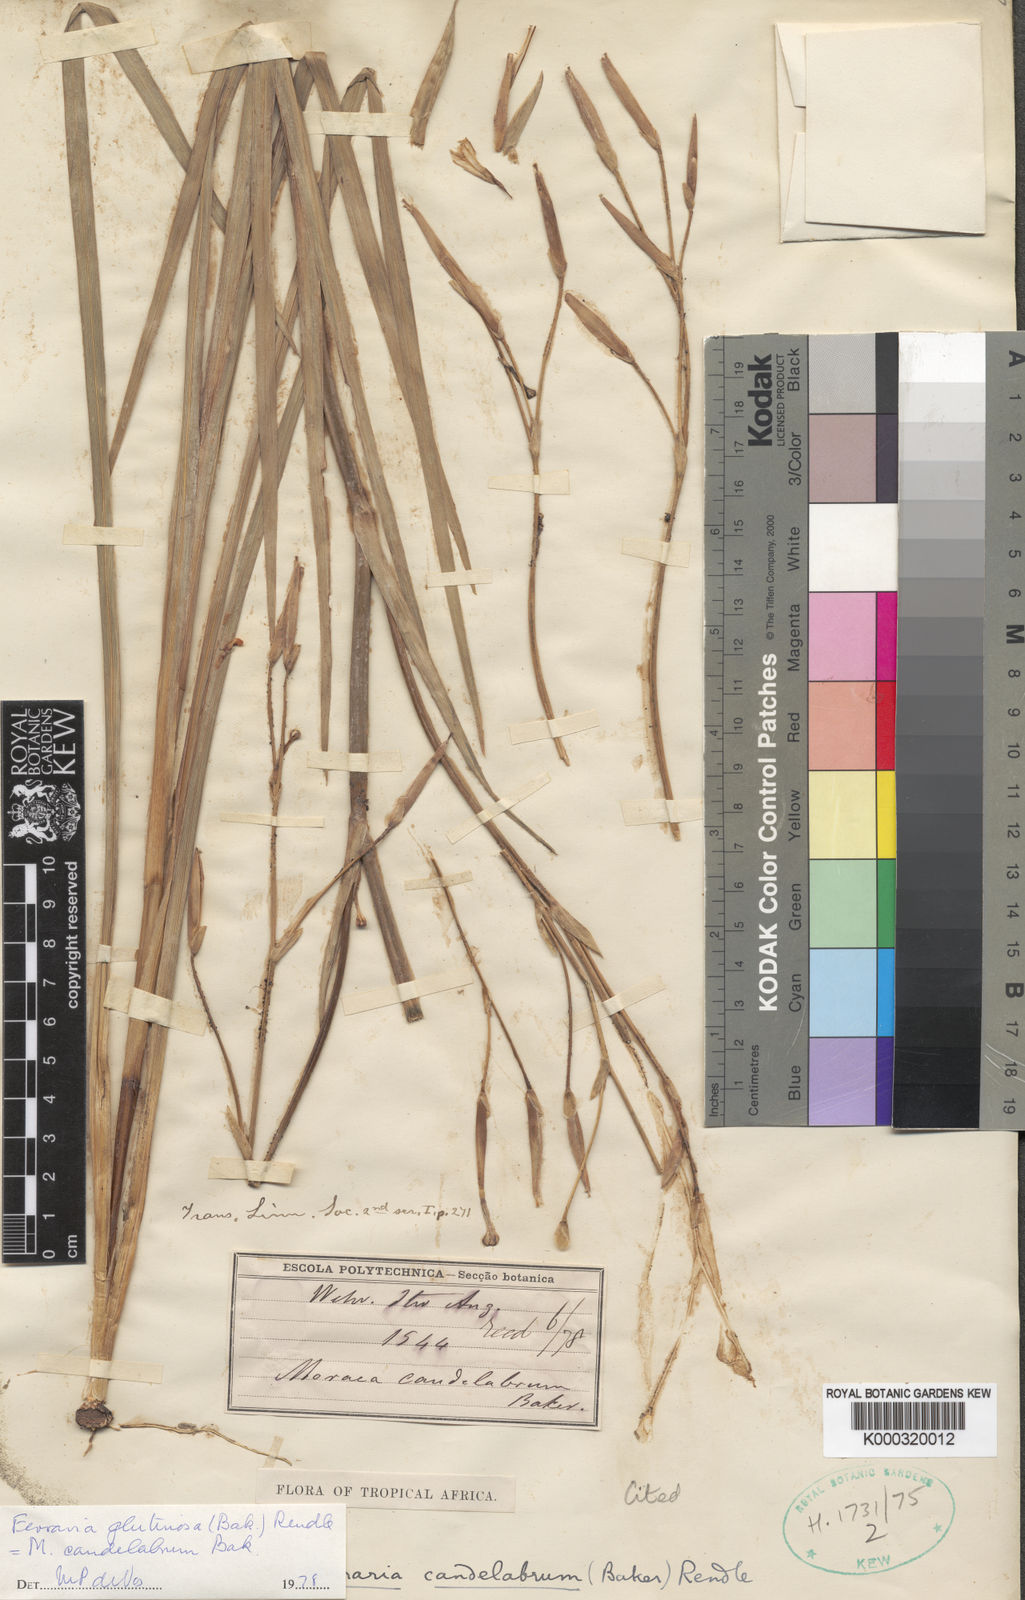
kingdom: Plantae
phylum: Tracheophyta
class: Liliopsida
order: Asparagales
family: Iridaceae
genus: Ferraria
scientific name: Ferraria candelabrum
